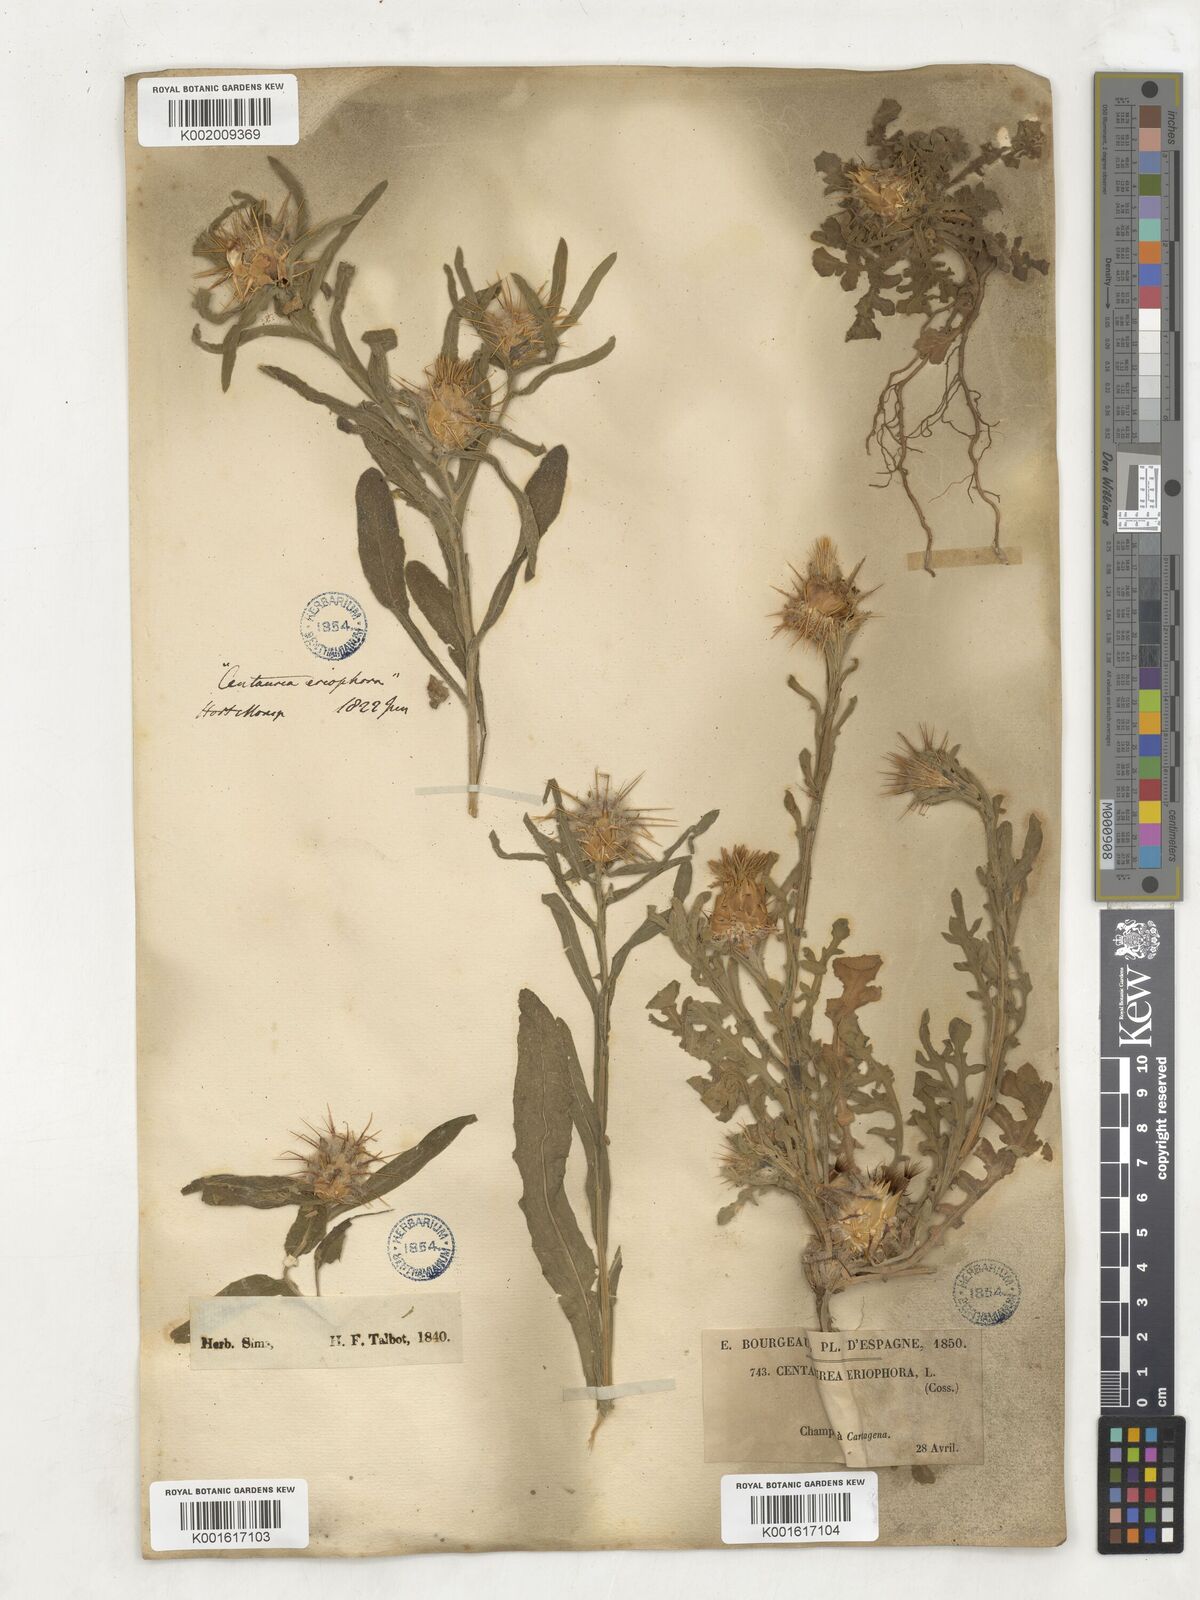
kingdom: Plantae
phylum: Tracheophyta
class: Magnoliopsida
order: Asterales
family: Asteraceae
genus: Centaurea
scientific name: Centaurea
